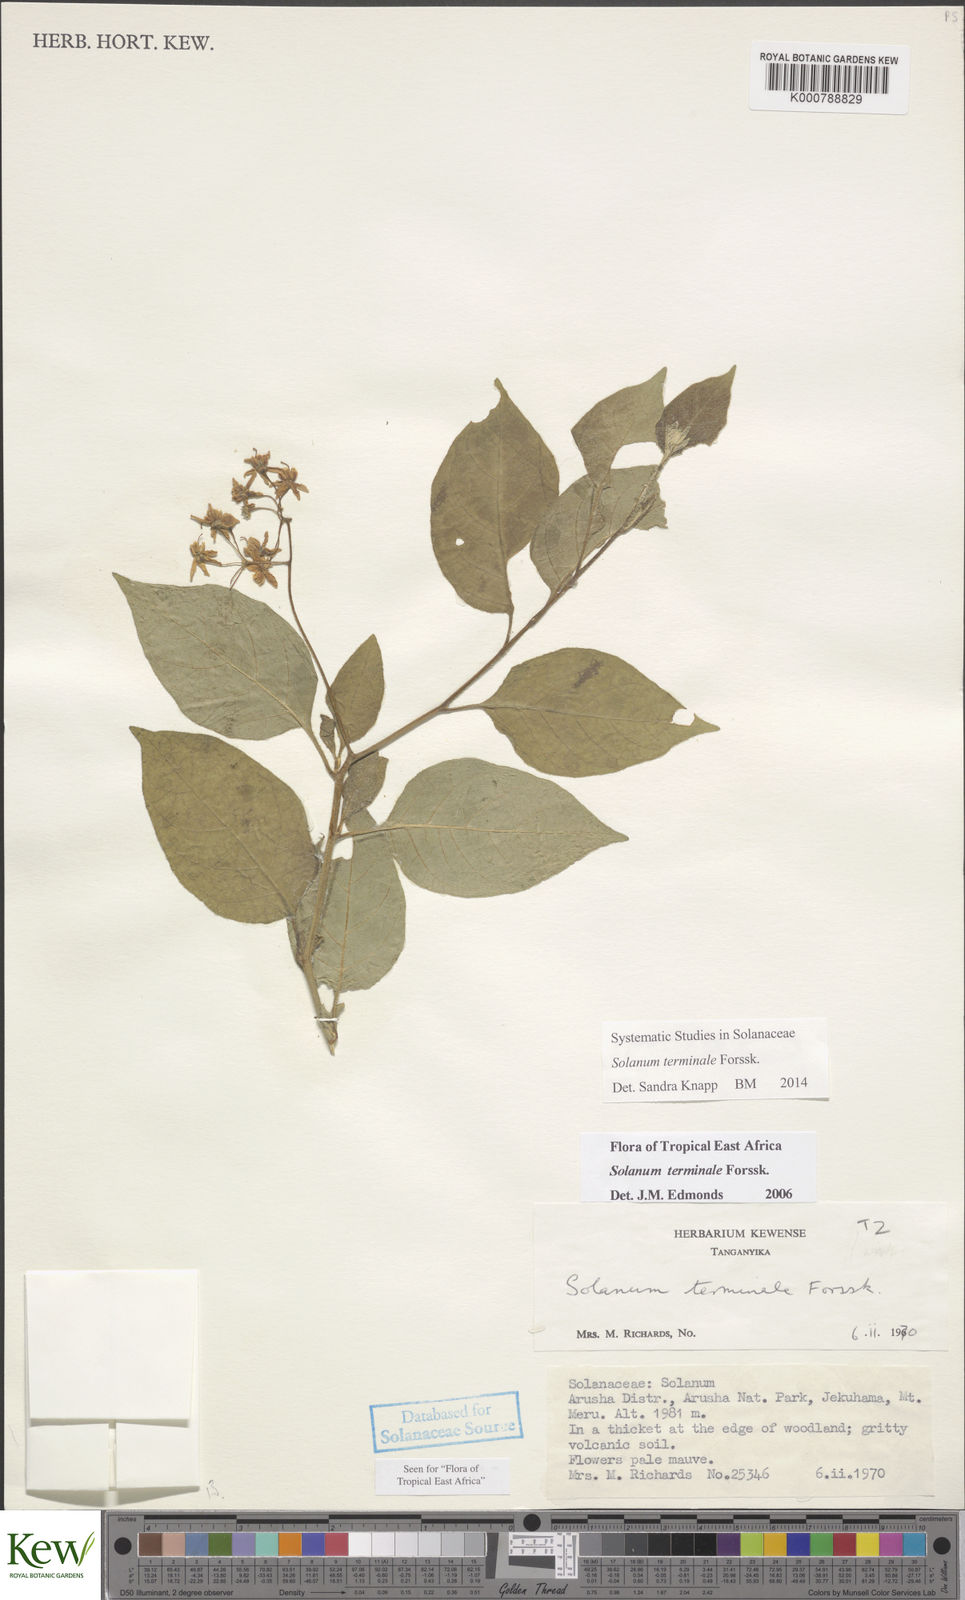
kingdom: Plantae
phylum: Tracheophyta
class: Magnoliopsida
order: Solanales
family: Solanaceae
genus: Solanum
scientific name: Solanum terminale
